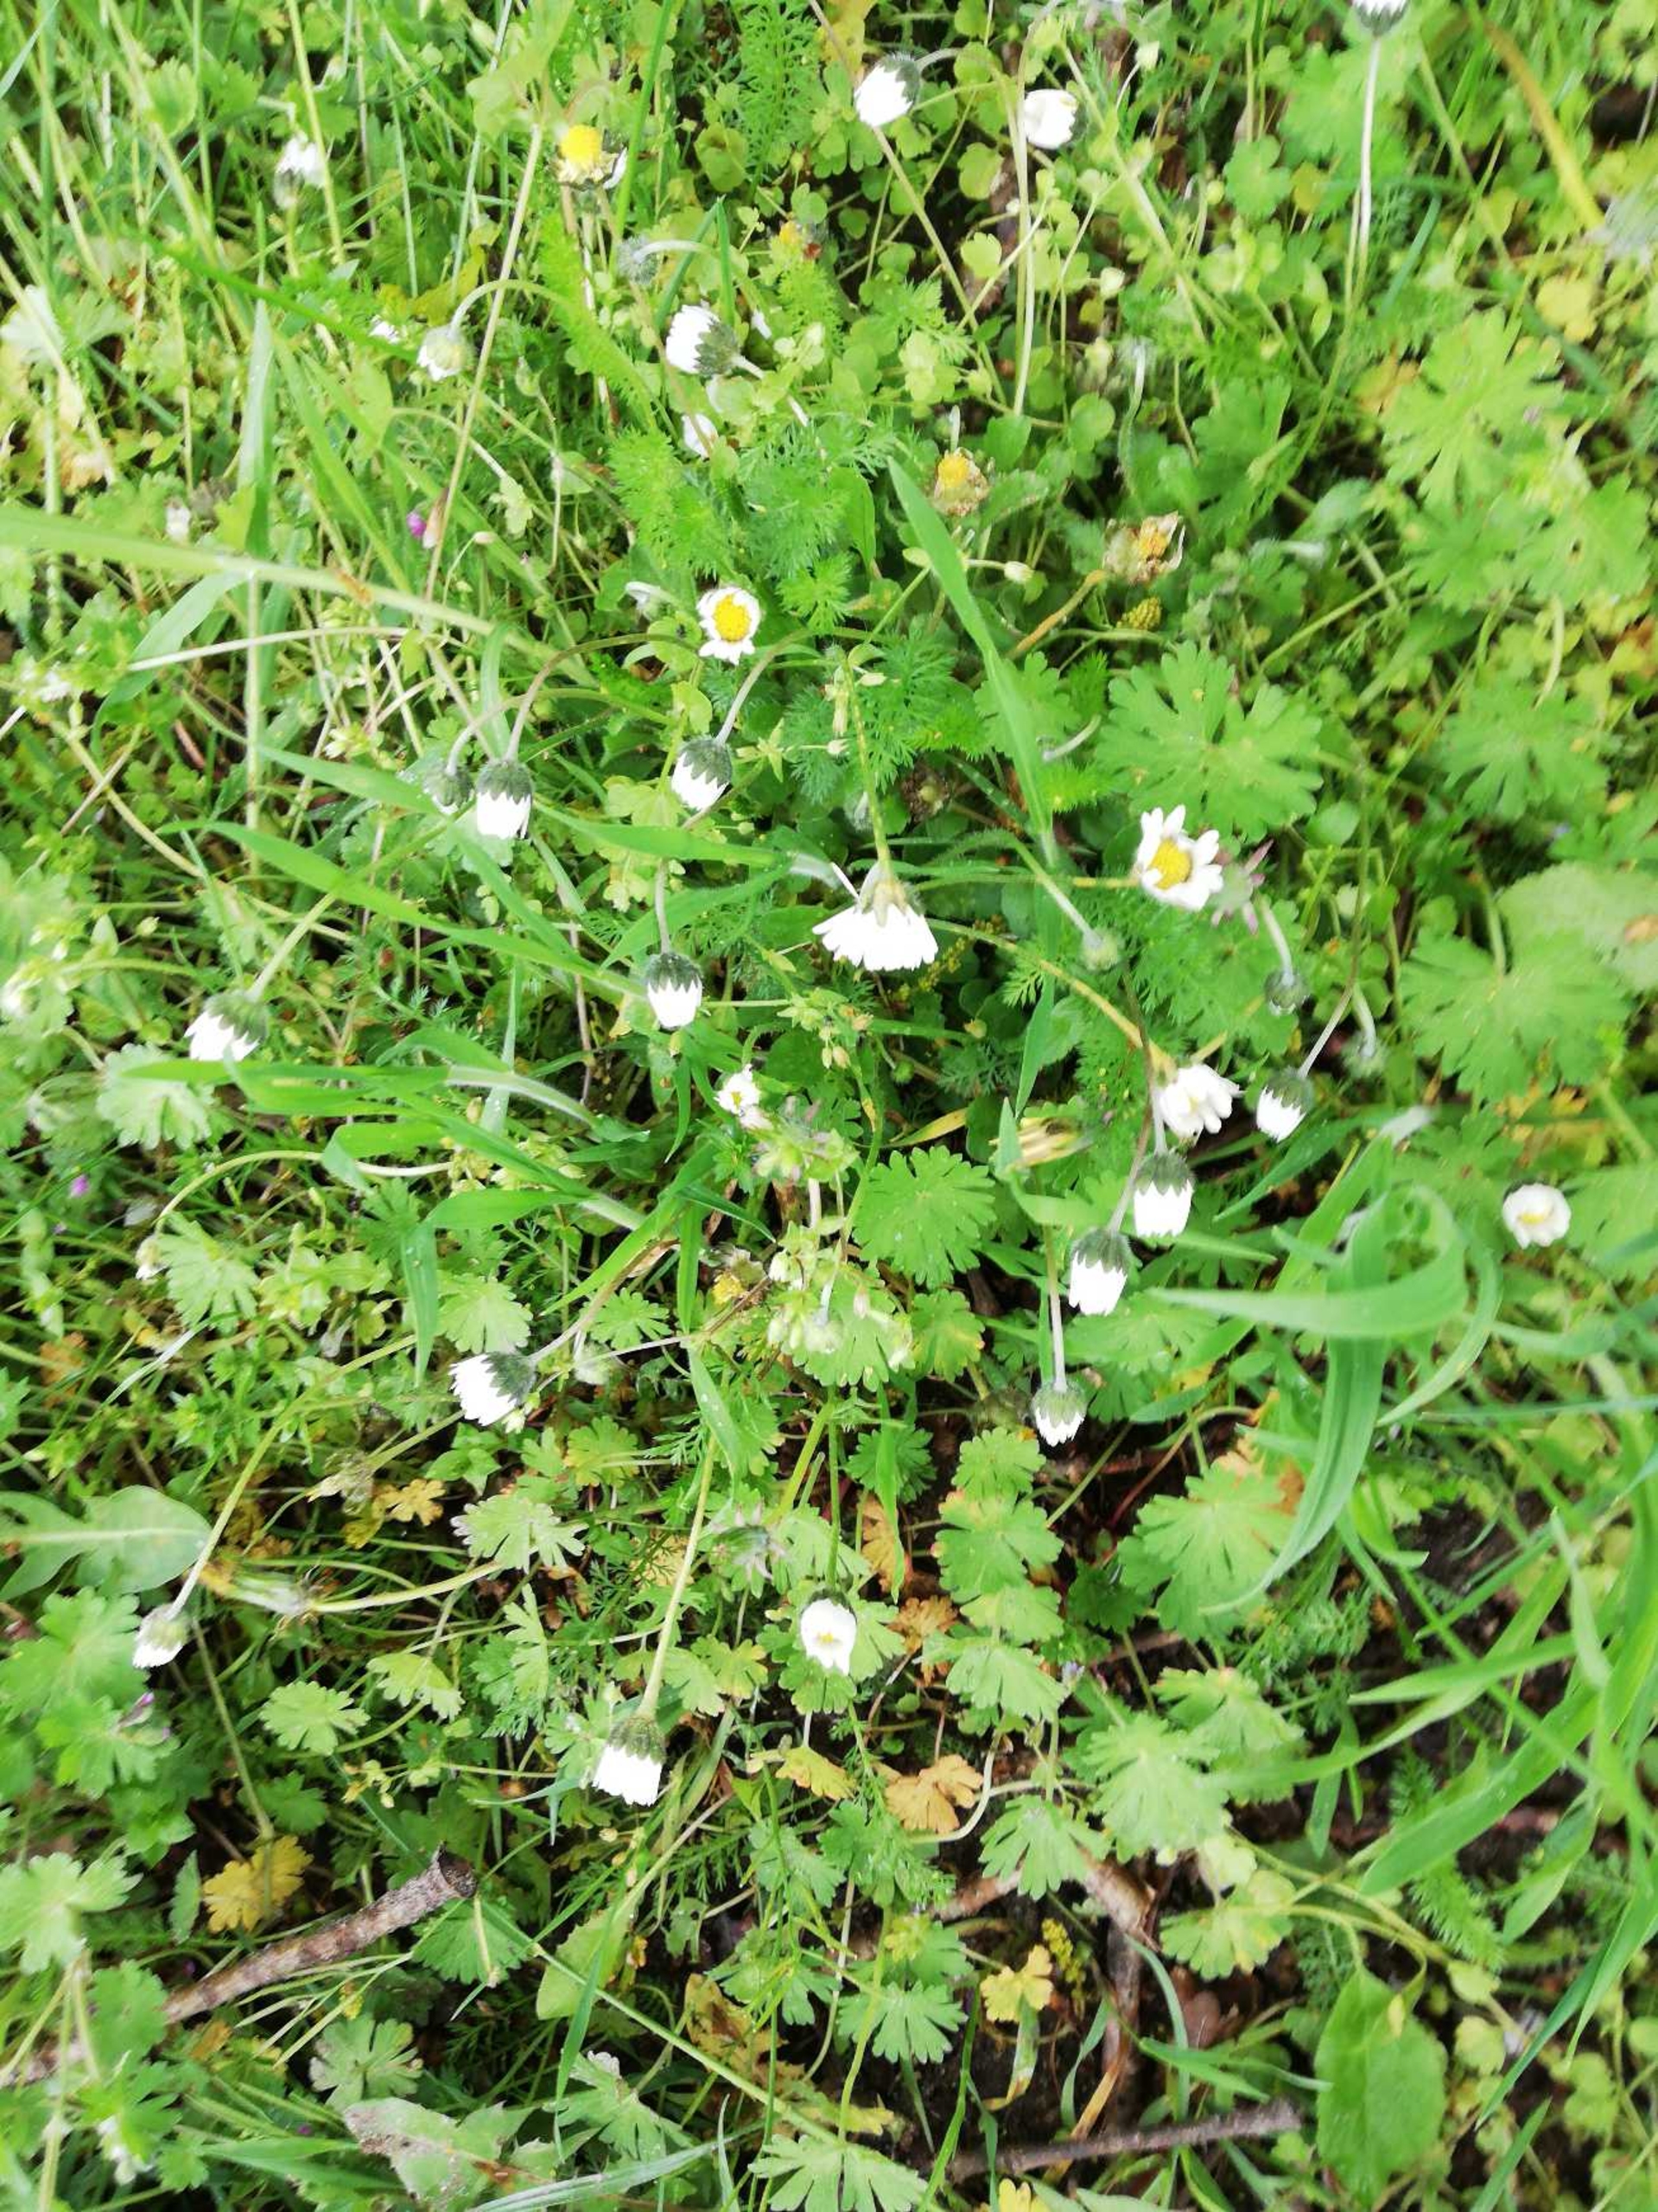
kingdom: Plantae
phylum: Tracheophyta
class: Magnoliopsida
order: Asterales
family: Asteraceae
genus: Bellis
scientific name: Bellis perennis
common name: Tusindfryd
